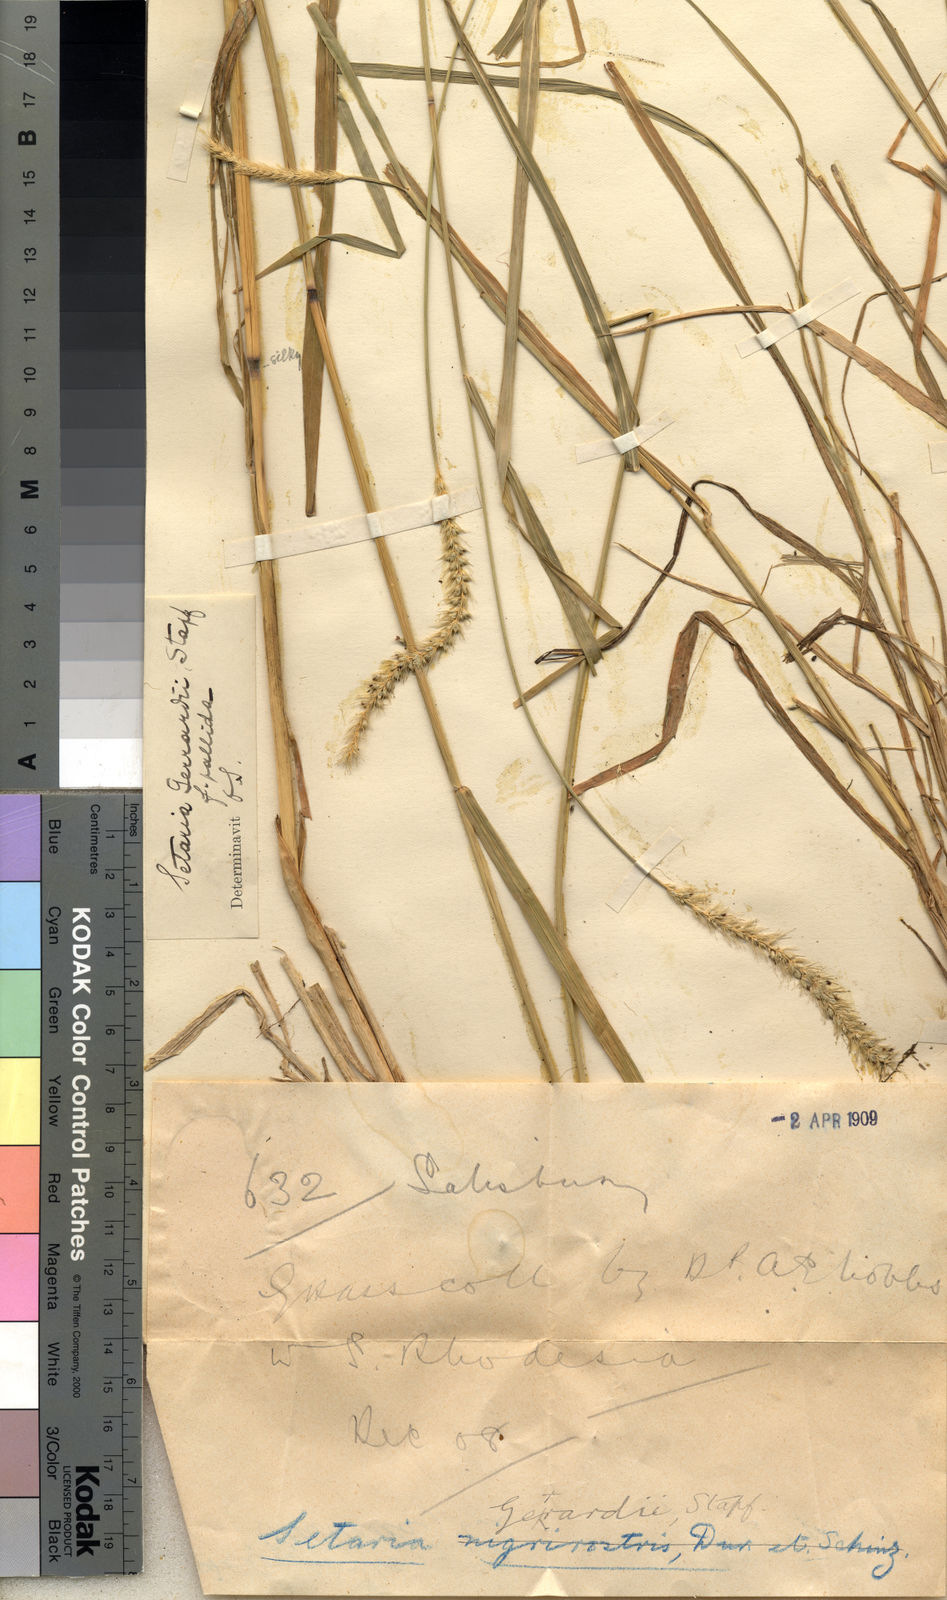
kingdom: Plantae
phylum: Tracheophyta
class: Liliopsida
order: Poales
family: Poaceae
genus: Setaria
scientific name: Setaria incrassata
